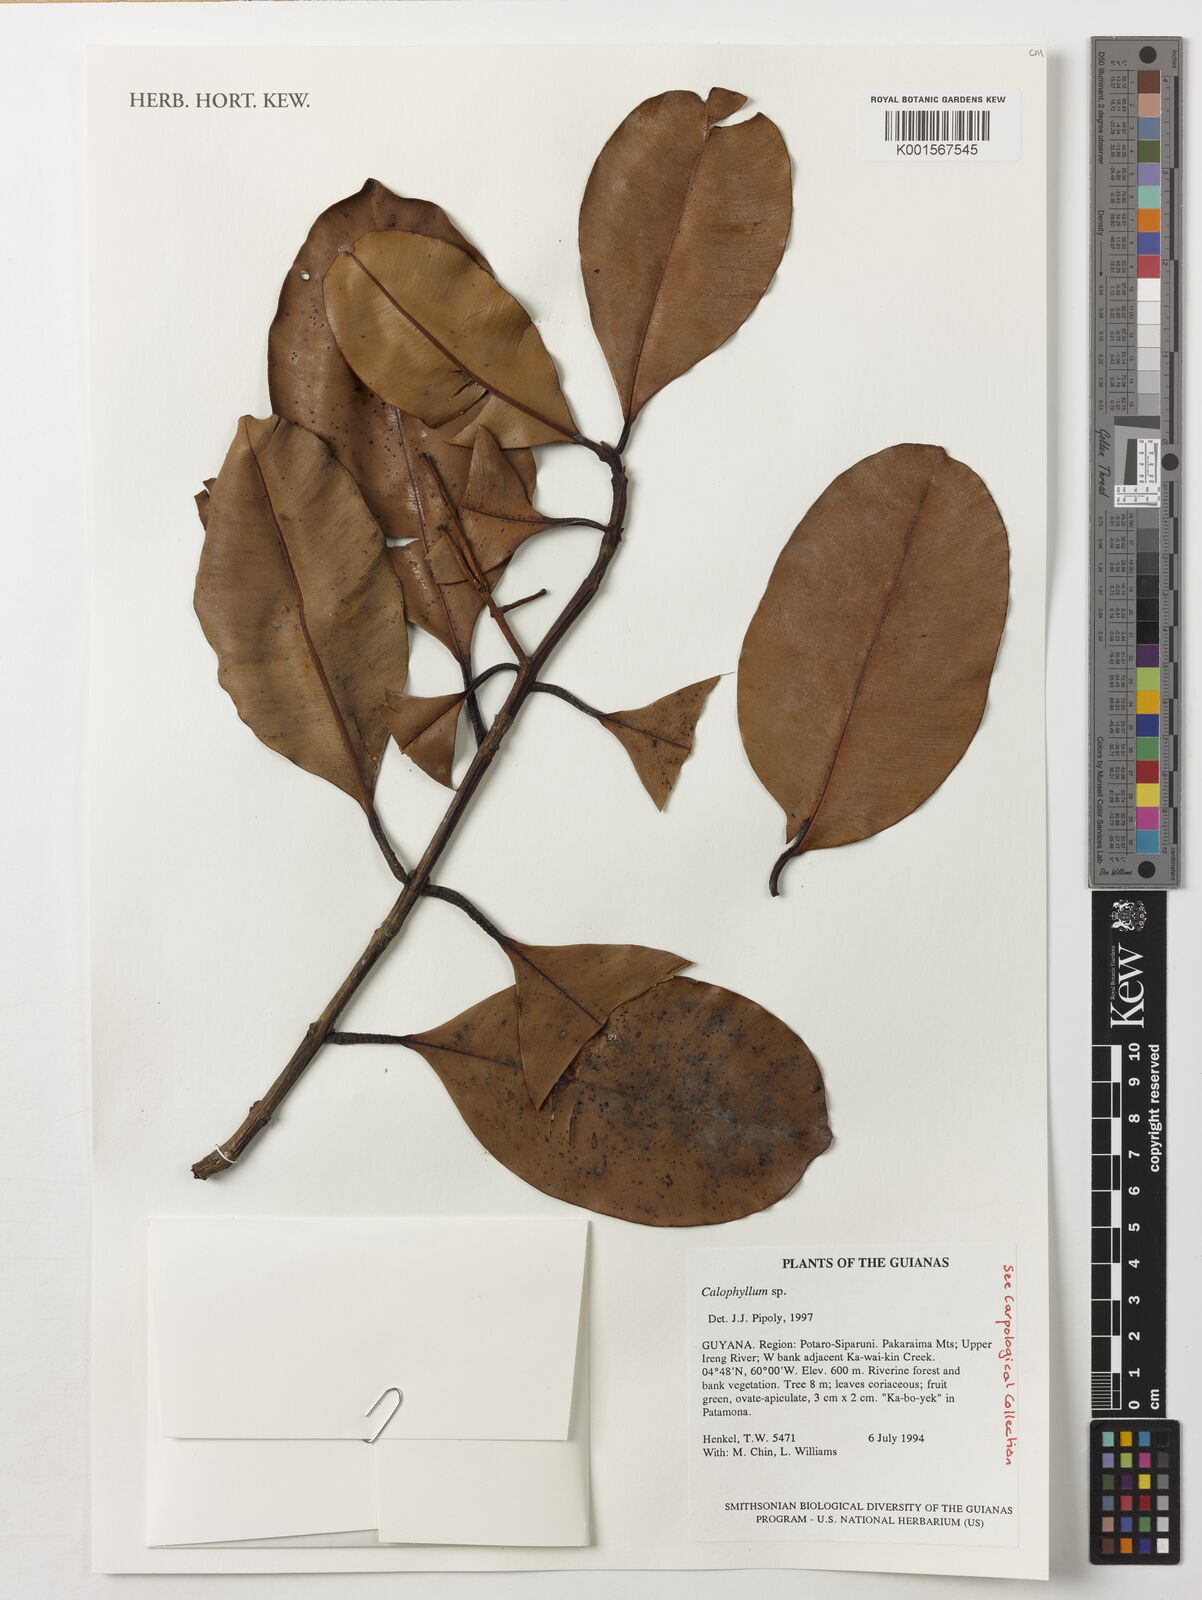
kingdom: Plantae
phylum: Tracheophyta
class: Magnoliopsida
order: Malpighiales
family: Calophyllaceae
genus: Calophyllum
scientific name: Calophyllum
